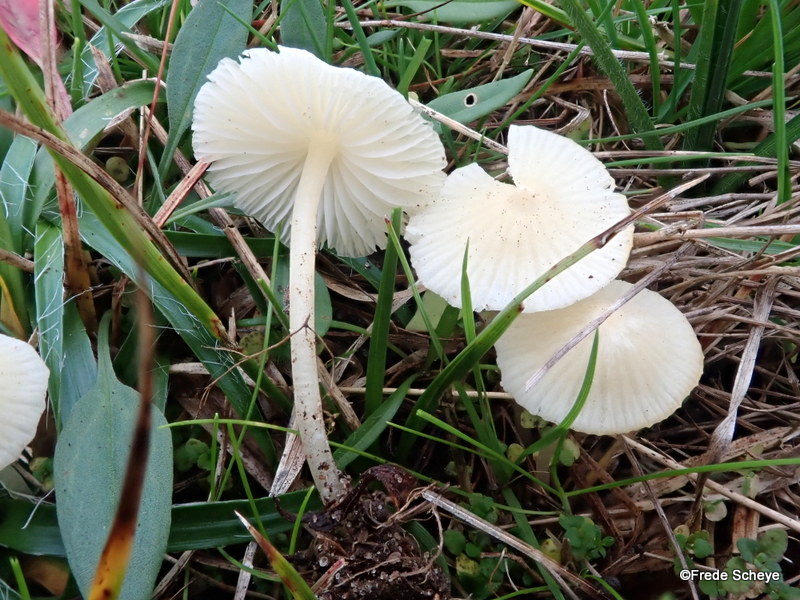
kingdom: Fungi
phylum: Basidiomycota
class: Agaricomycetes
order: Agaricales
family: Mycenaceae
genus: Atheniella
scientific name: Atheniella flavoalba
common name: gulhvid huesvamp
